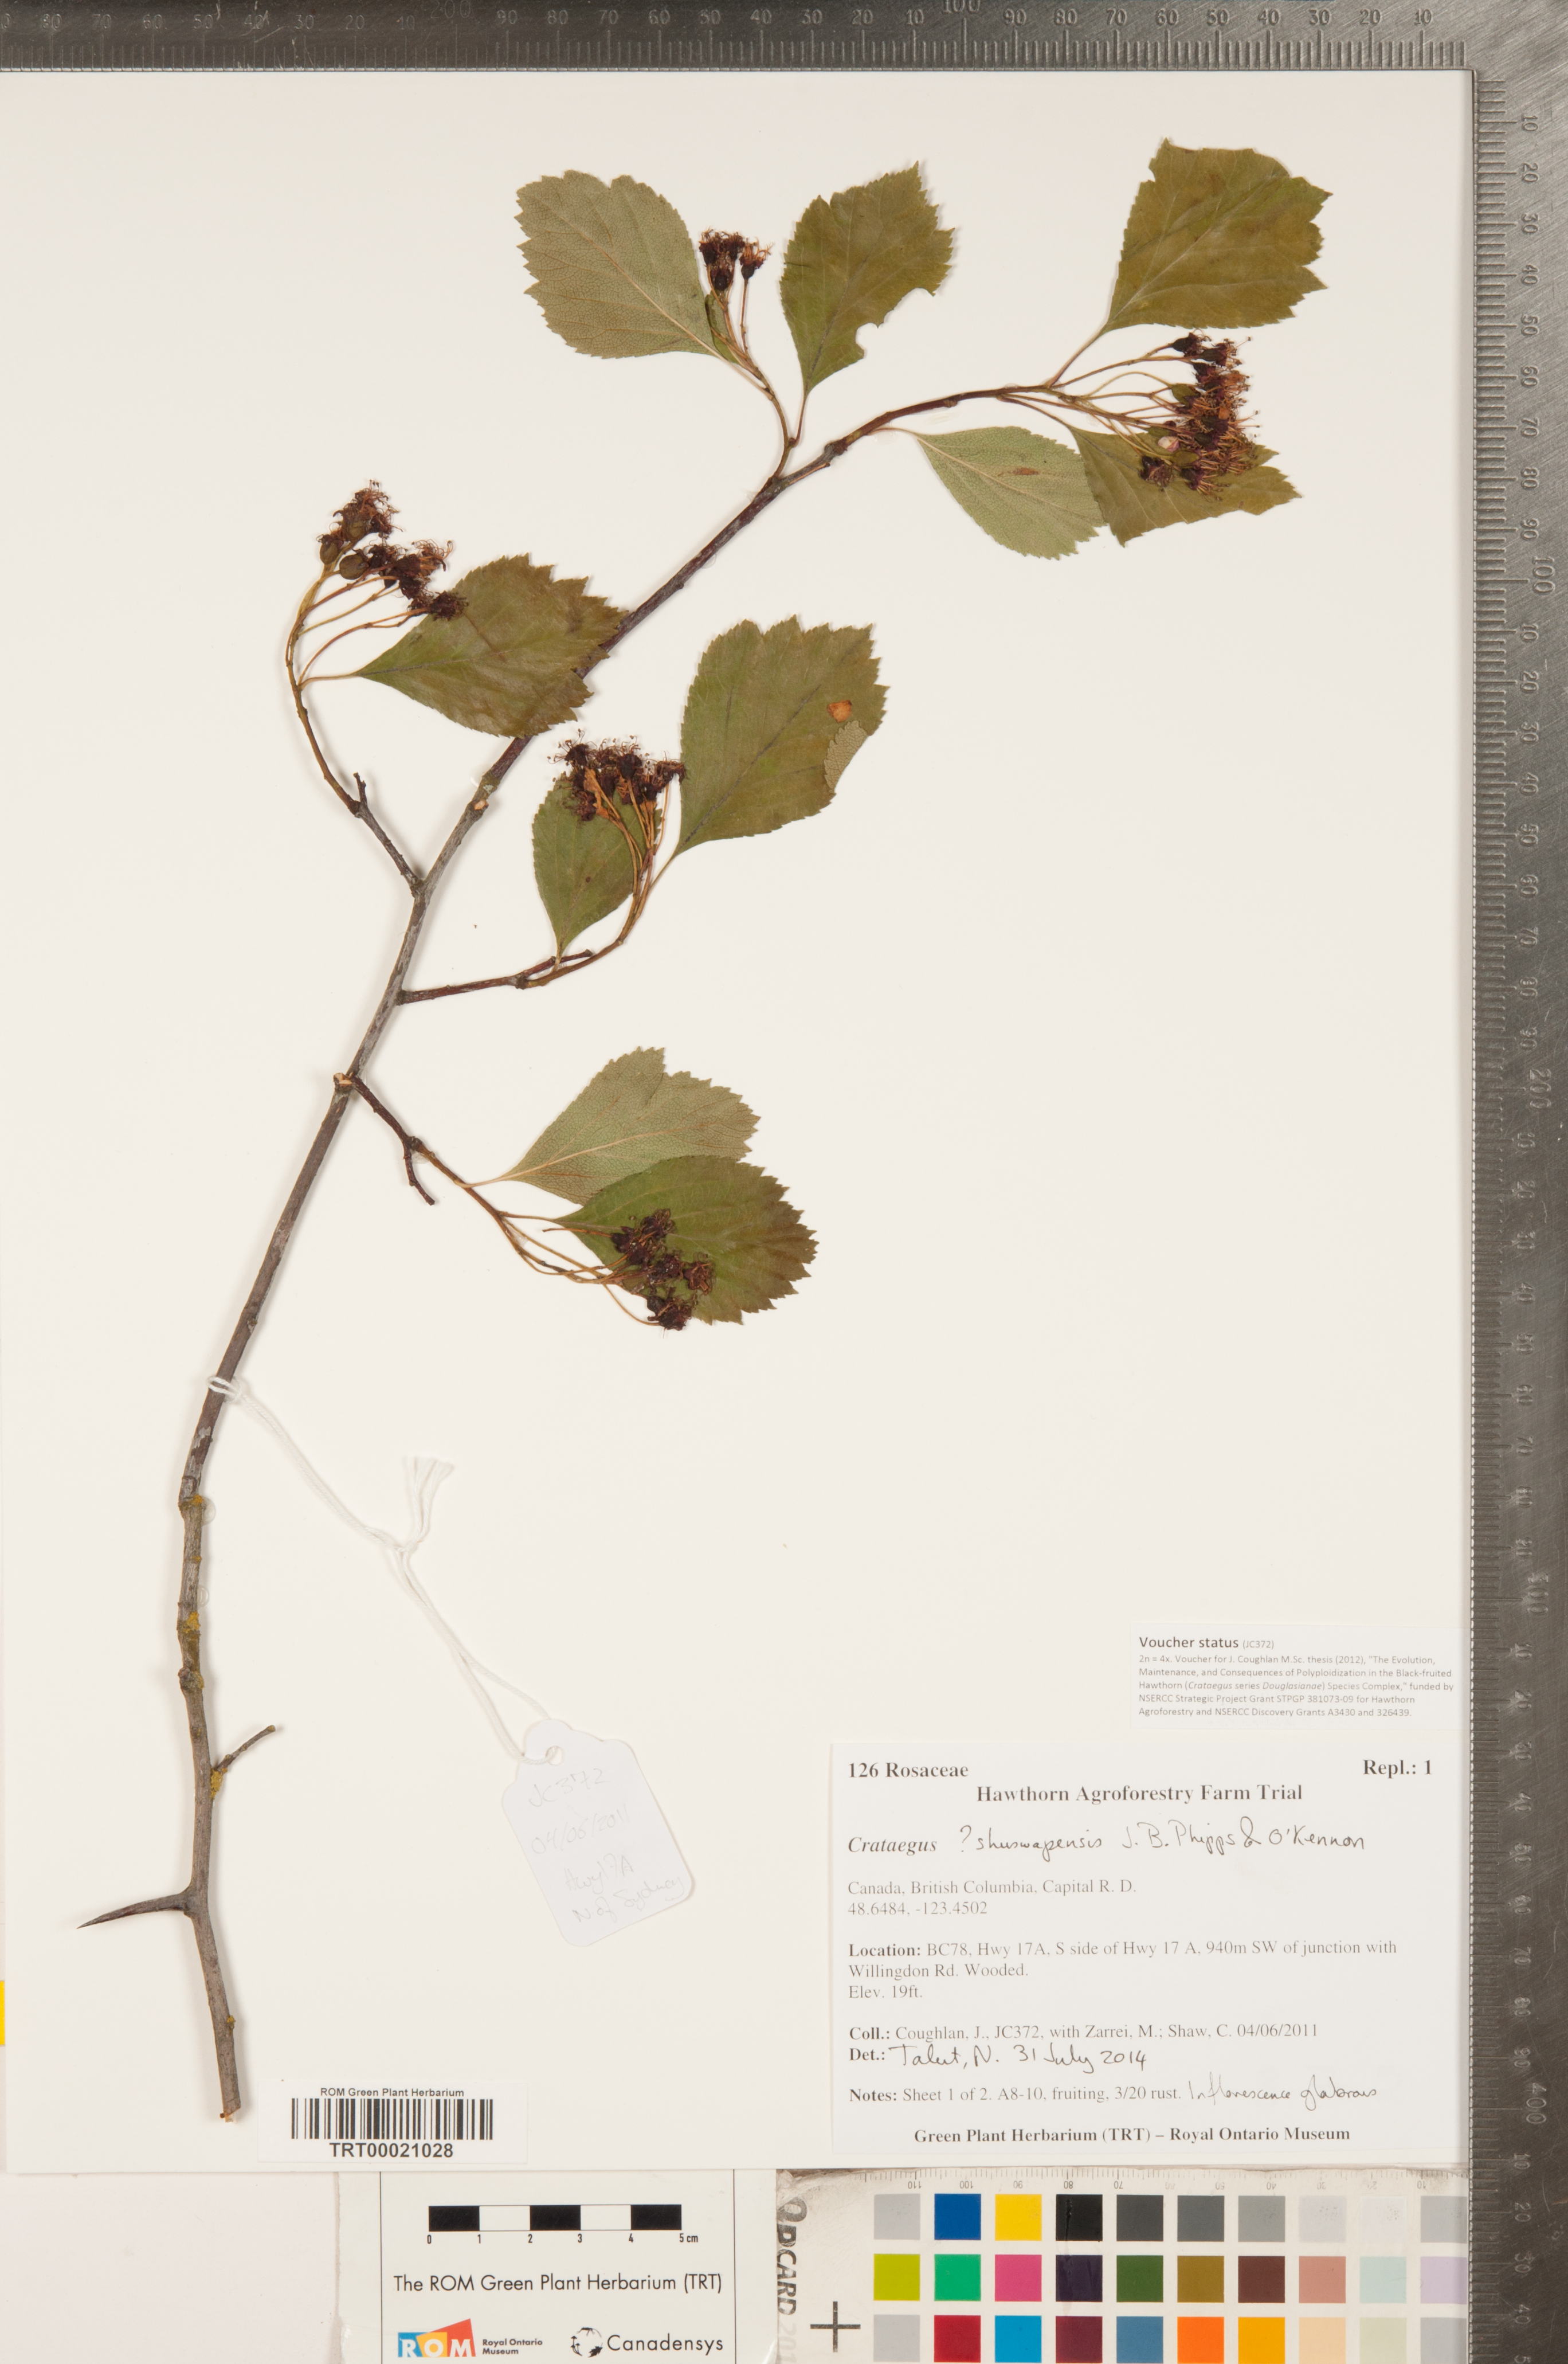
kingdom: Plantae
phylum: Tracheophyta
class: Magnoliopsida
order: Rosales
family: Rosaceae
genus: Crataegus
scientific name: Crataegus shuswapensis
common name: Shuswap hawthorn
